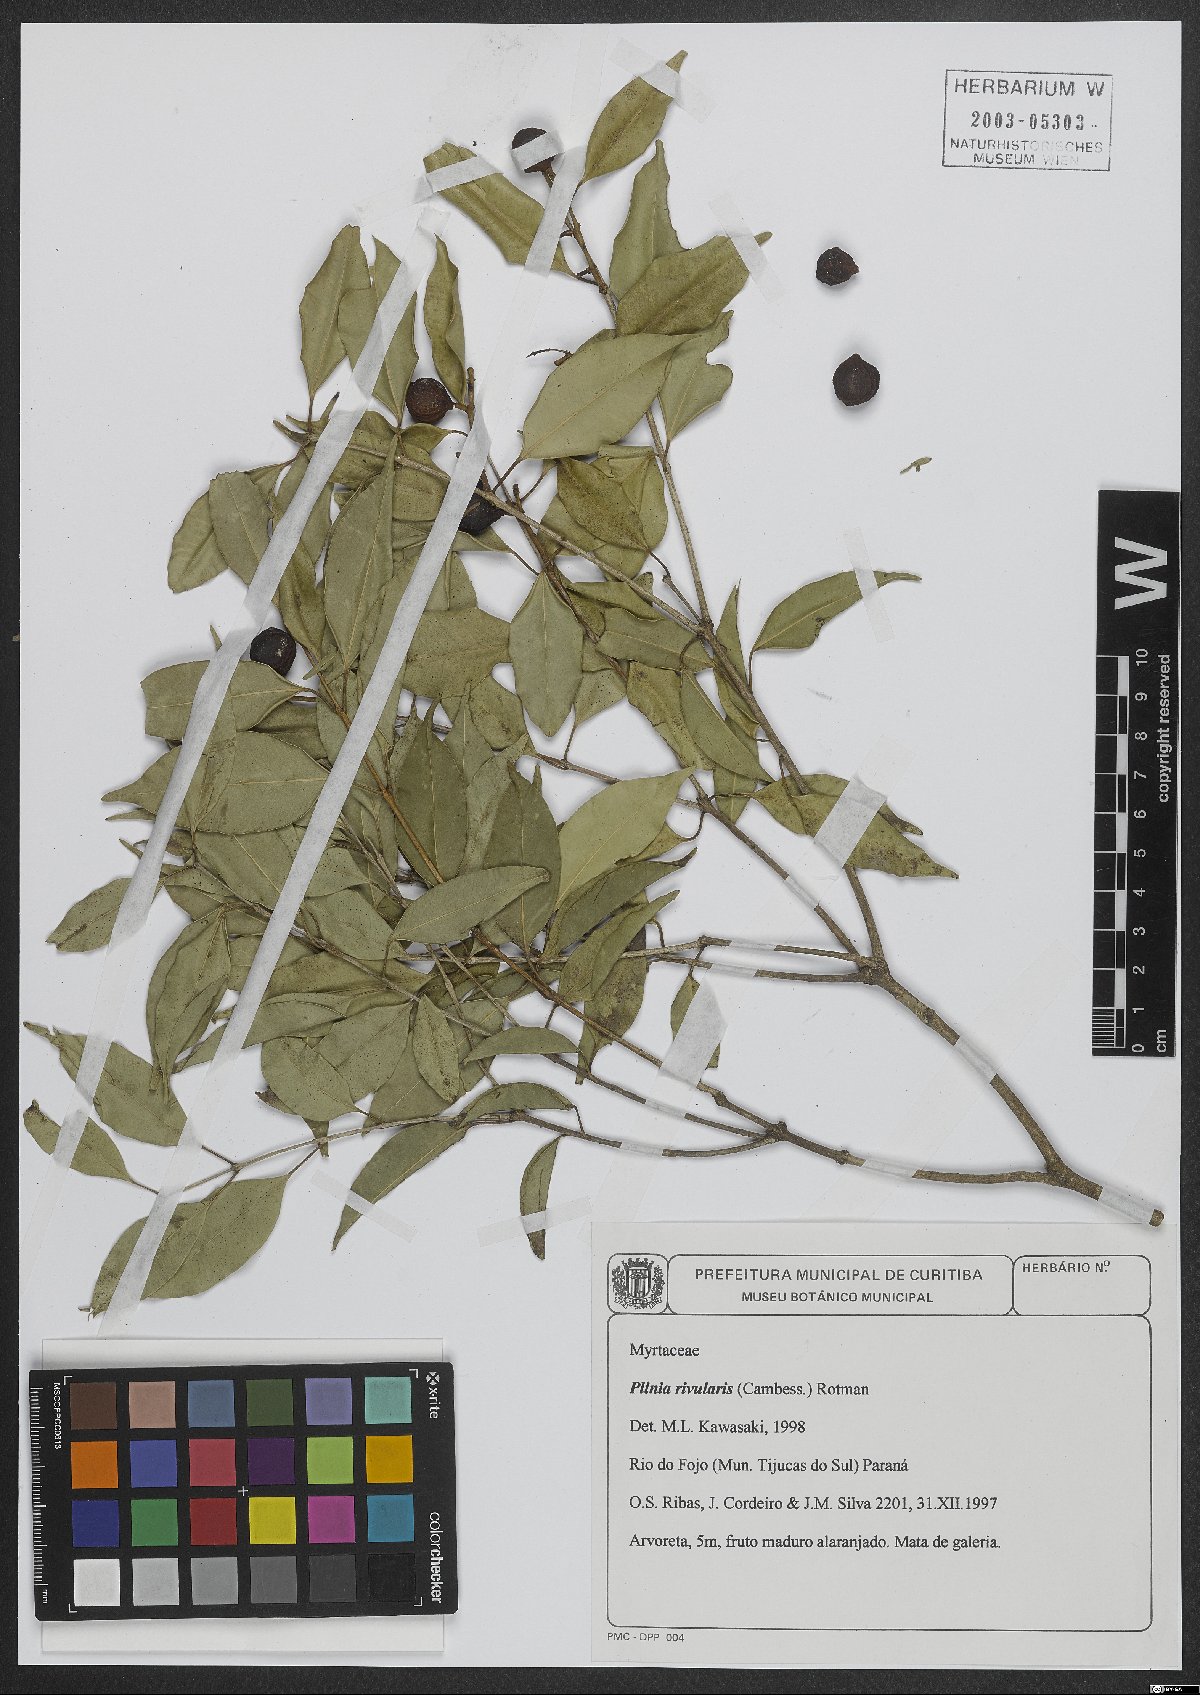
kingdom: Plantae
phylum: Tracheophyta
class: Magnoliopsida
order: Myrtales
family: Myrtaceae
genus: Plinia
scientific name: Plinia rivularis
